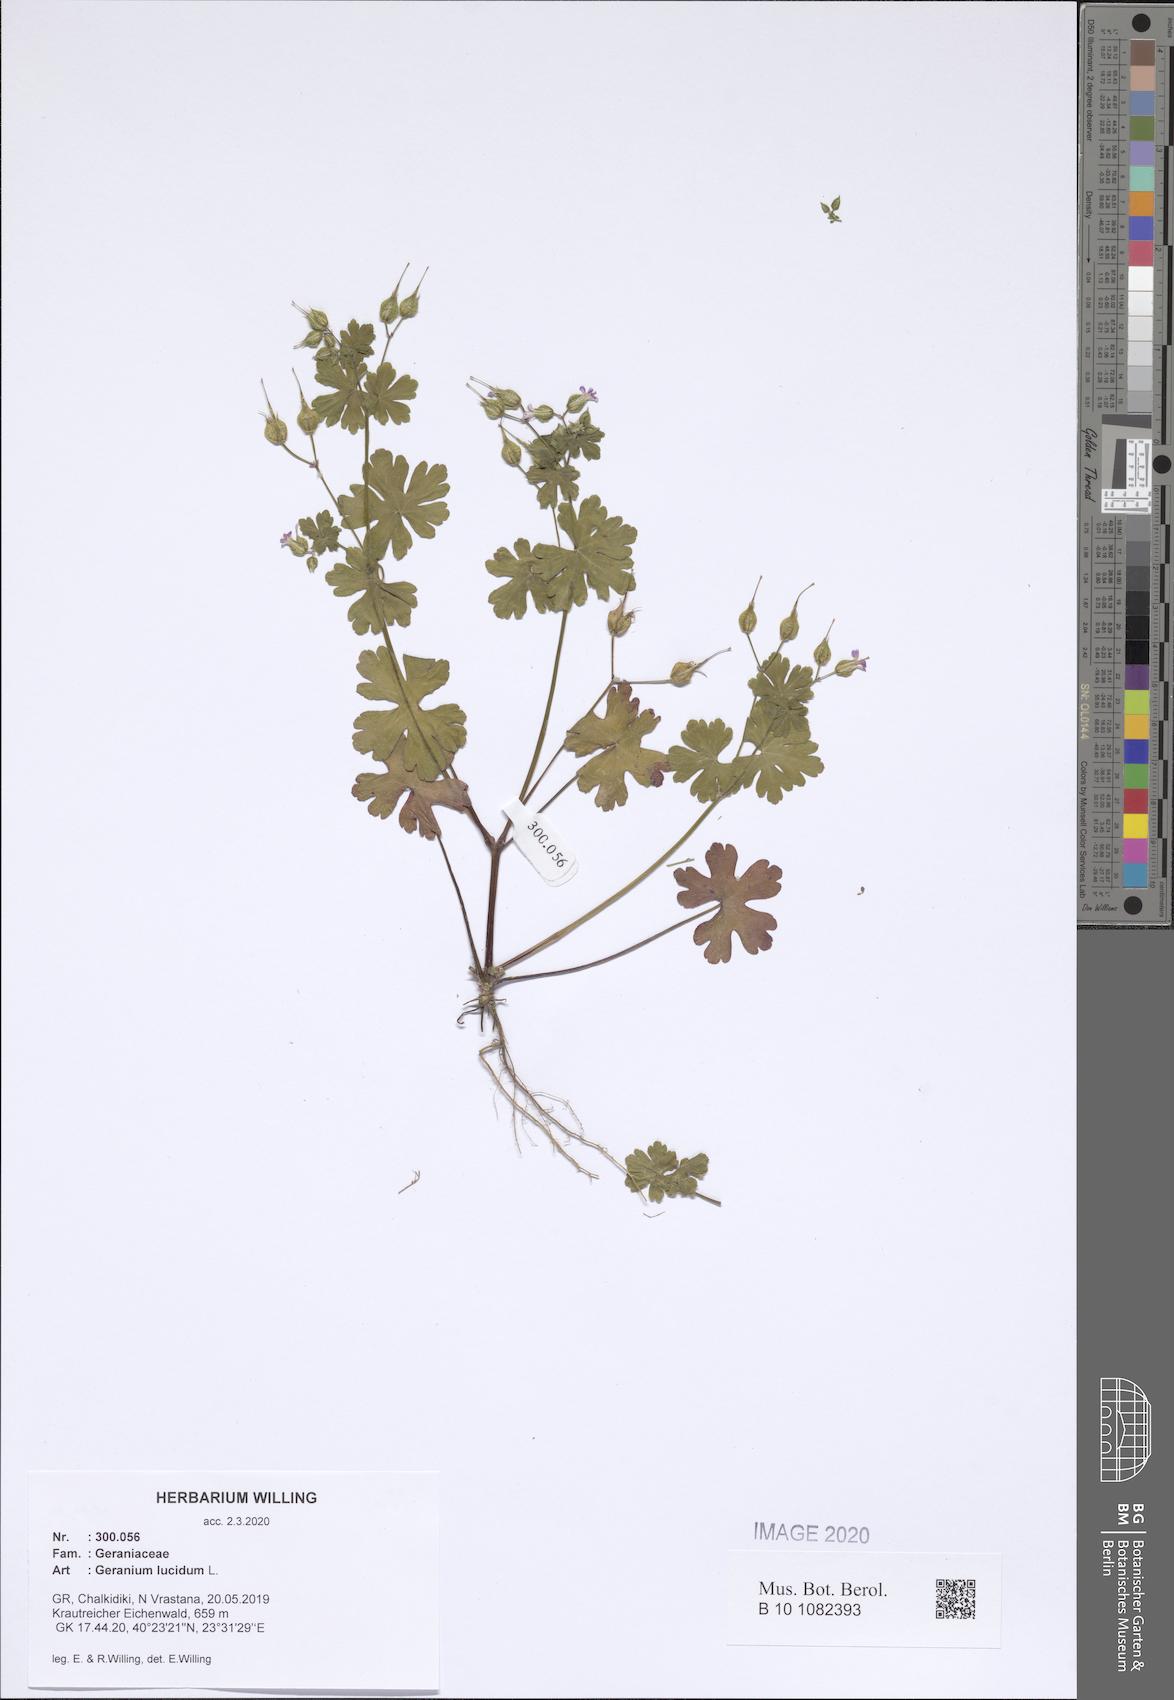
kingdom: Plantae
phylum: Tracheophyta
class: Magnoliopsida
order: Geraniales
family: Geraniaceae
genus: Geranium
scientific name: Geranium lucidum
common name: Shining crane's-bill
